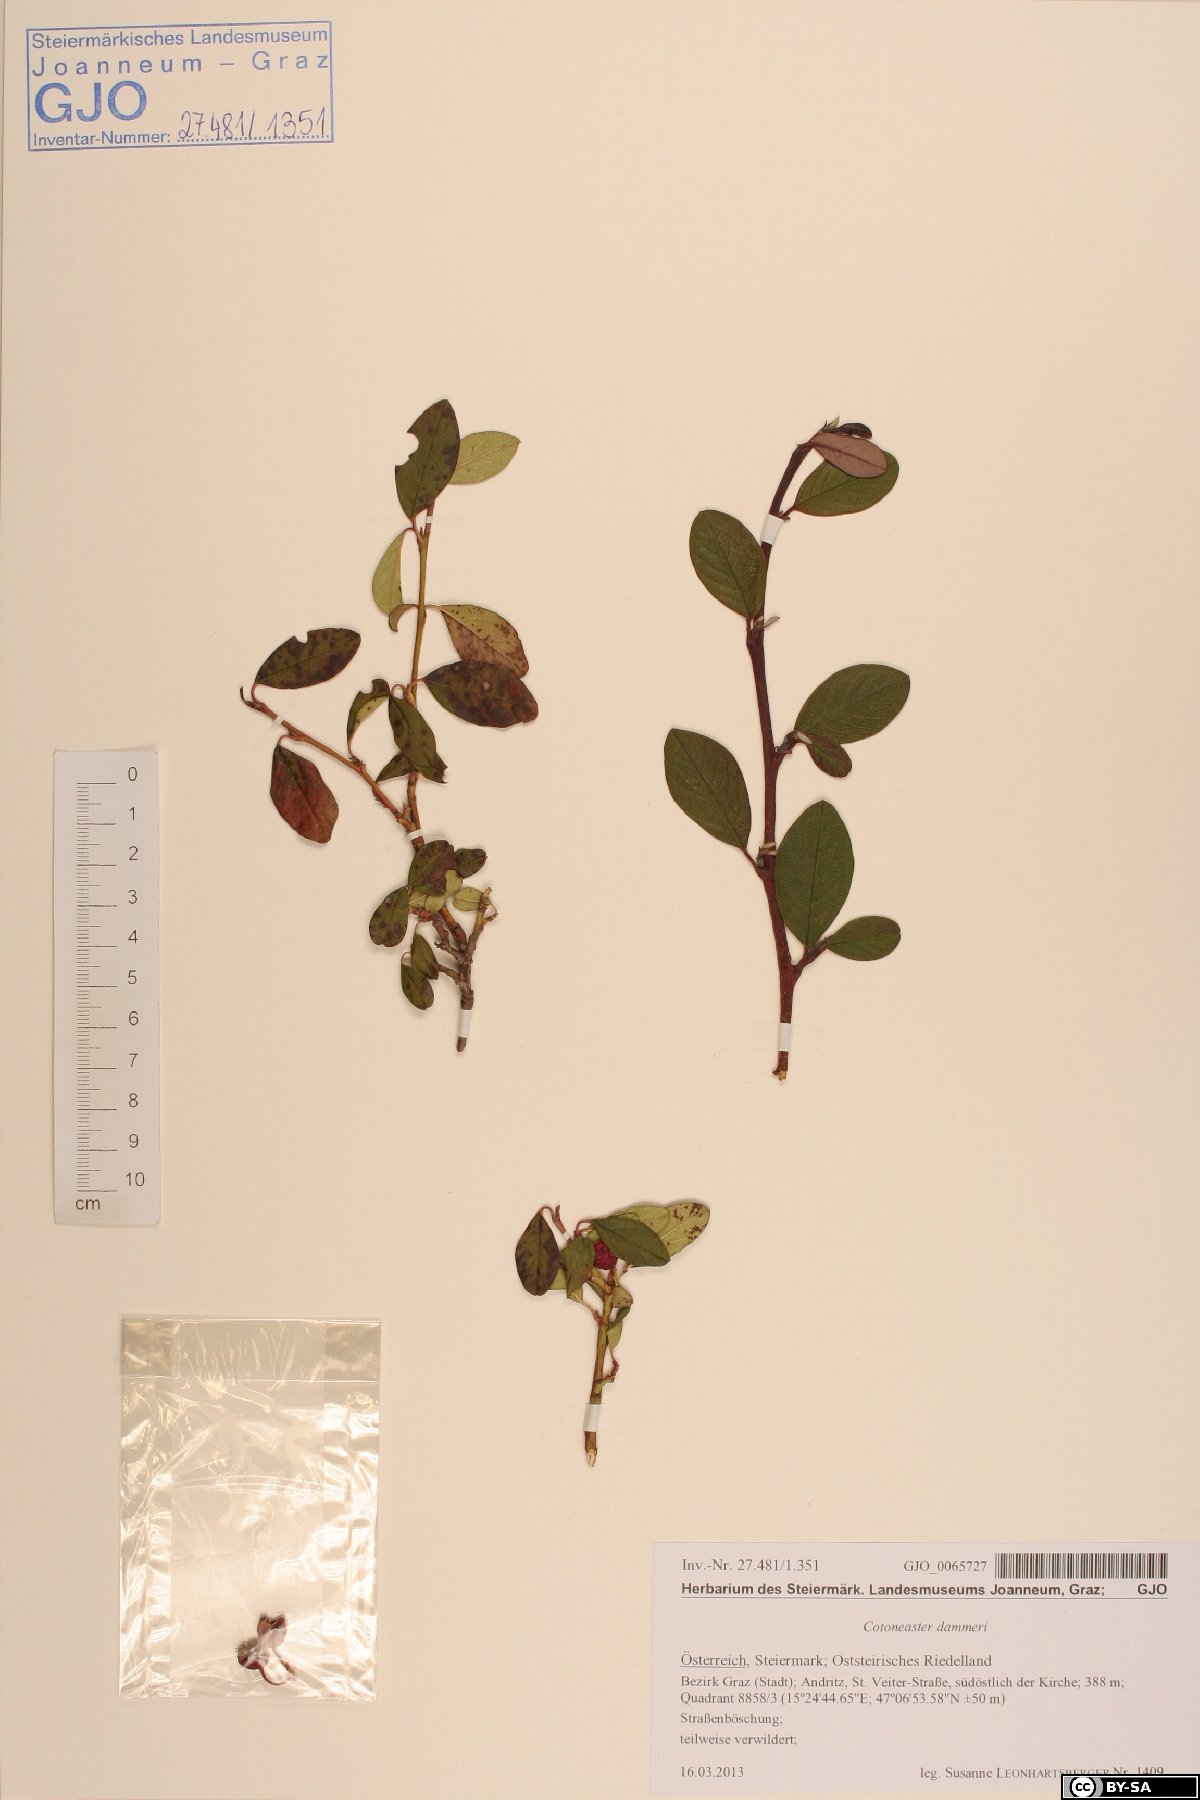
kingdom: Plantae
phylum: Tracheophyta
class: Magnoliopsida
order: Rosales
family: Rosaceae
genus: Cotoneaster
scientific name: Cotoneaster dammeri
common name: Bearberry cotoneaster
